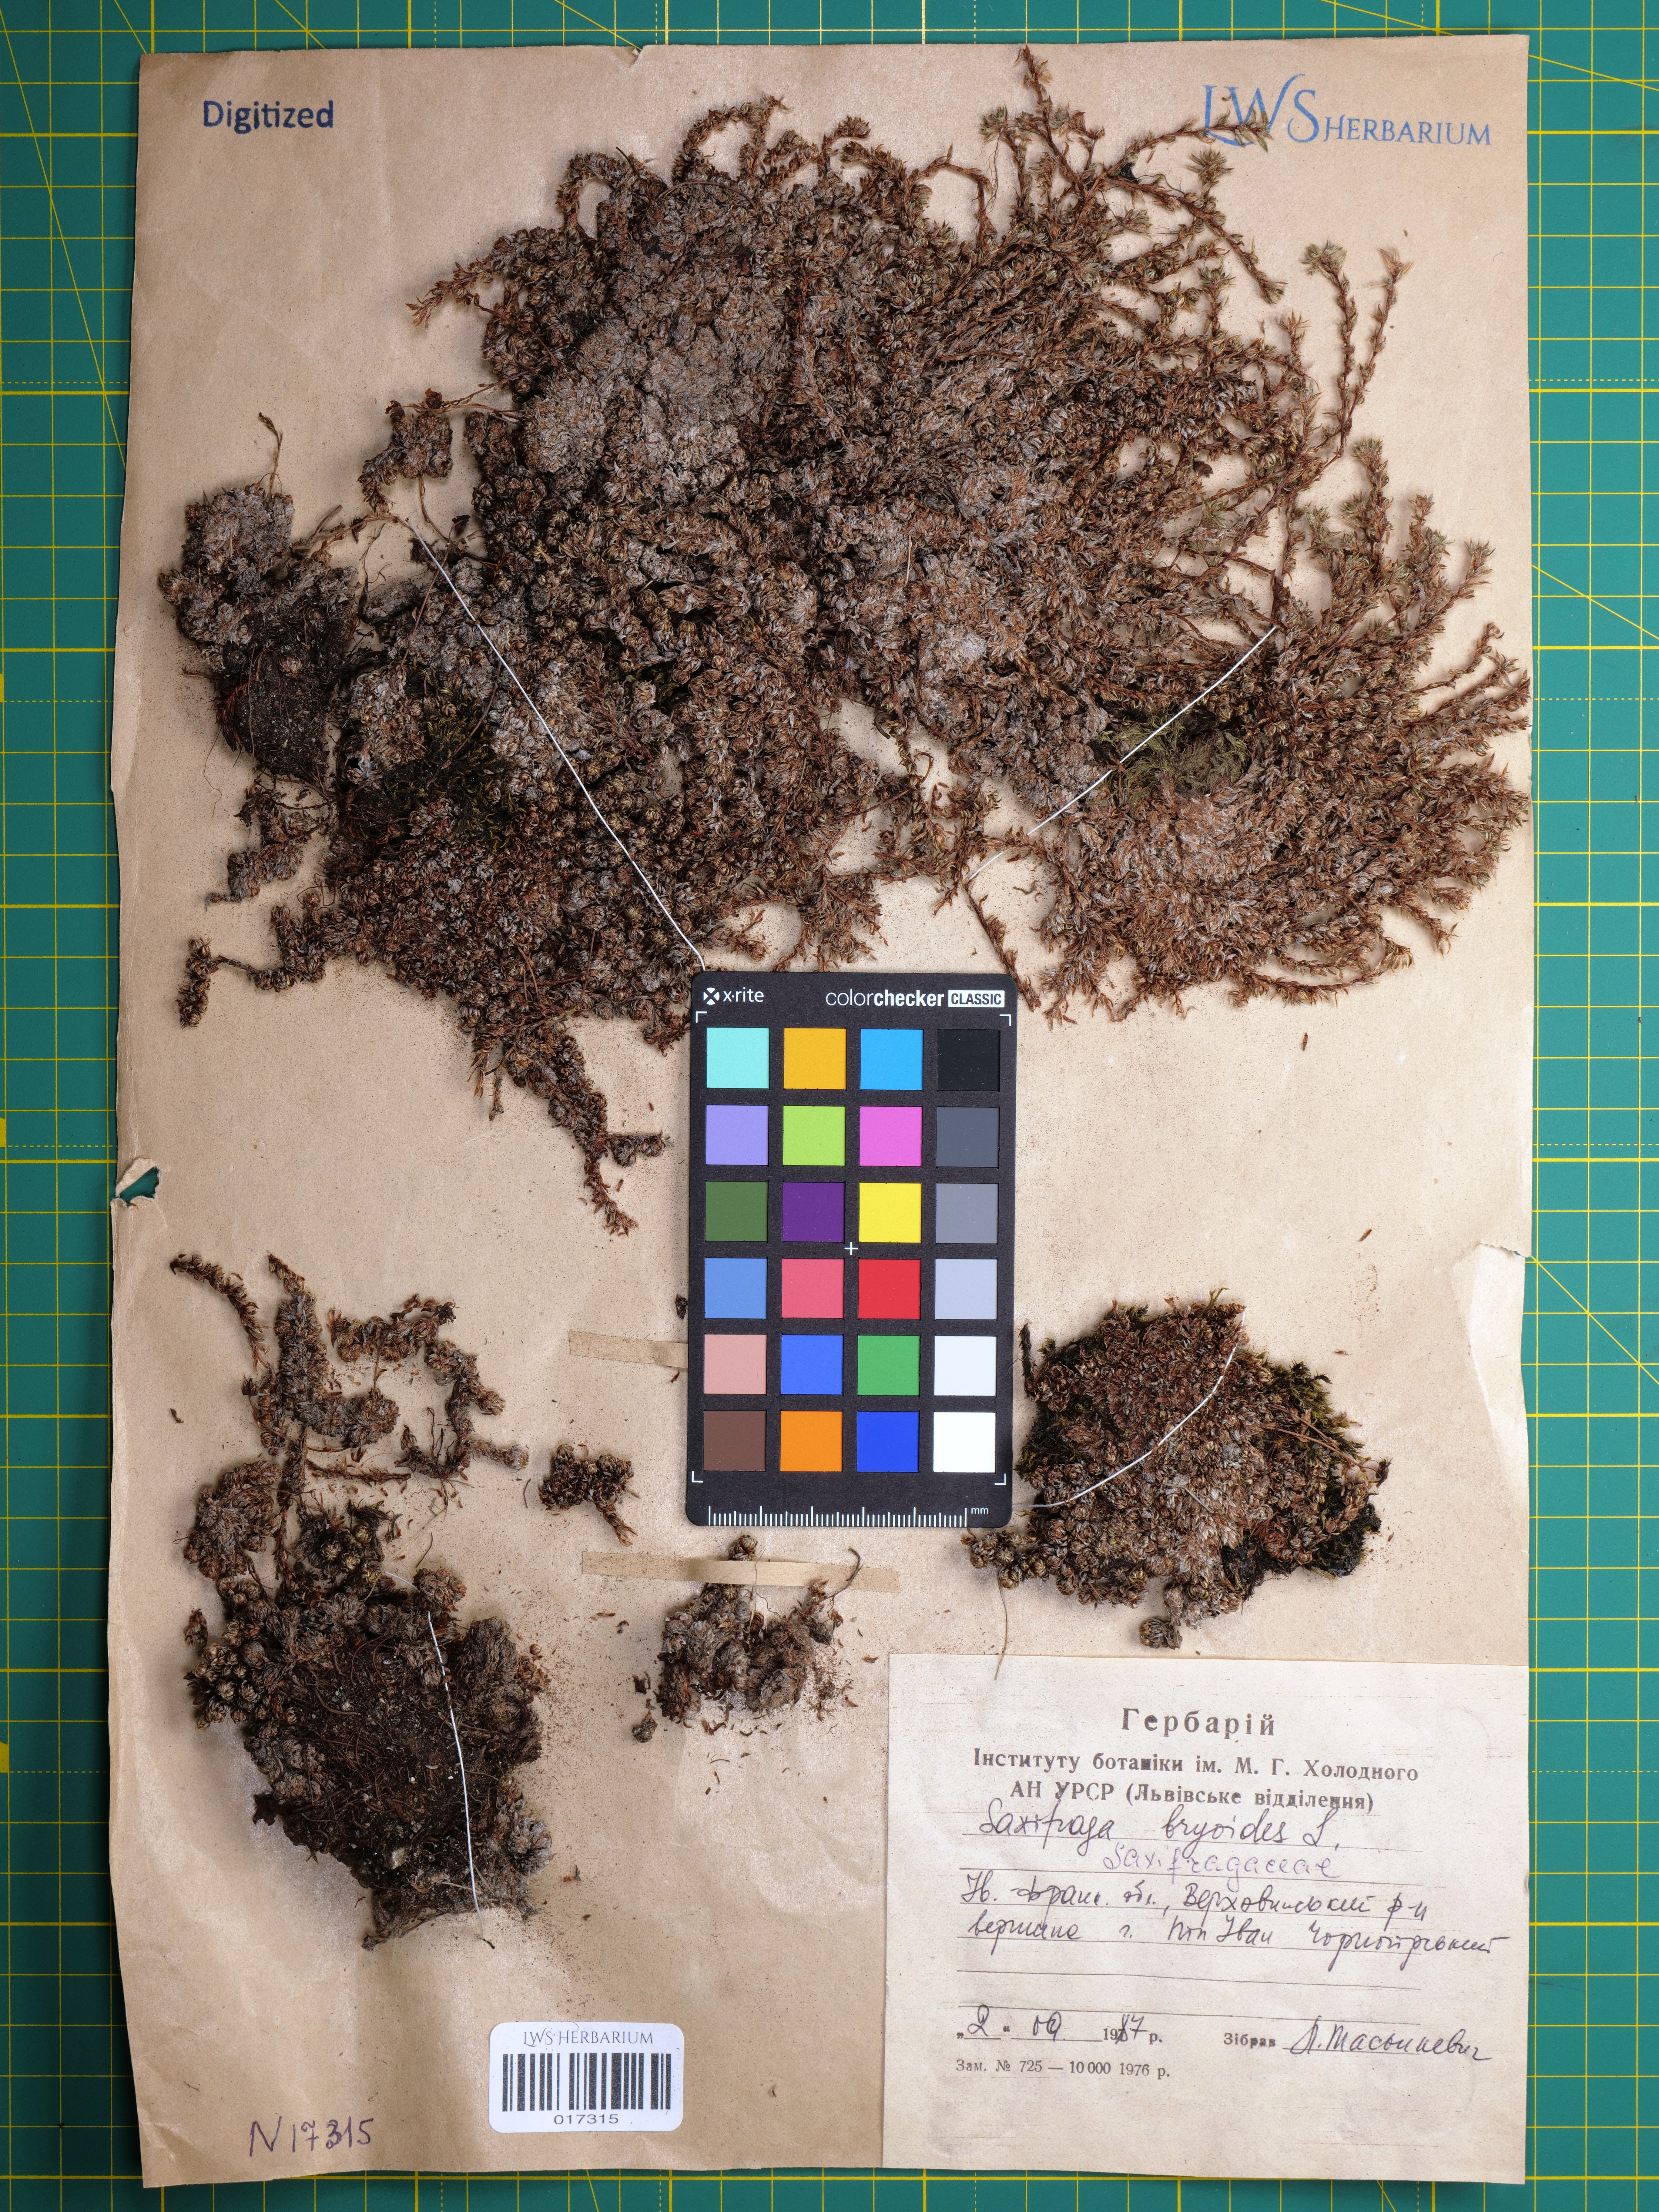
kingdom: Plantae
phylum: Tracheophyta
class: Magnoliopsida
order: Saxifragales
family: Saxifragaceae
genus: Saxifraga
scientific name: Saxifraga bryoides
